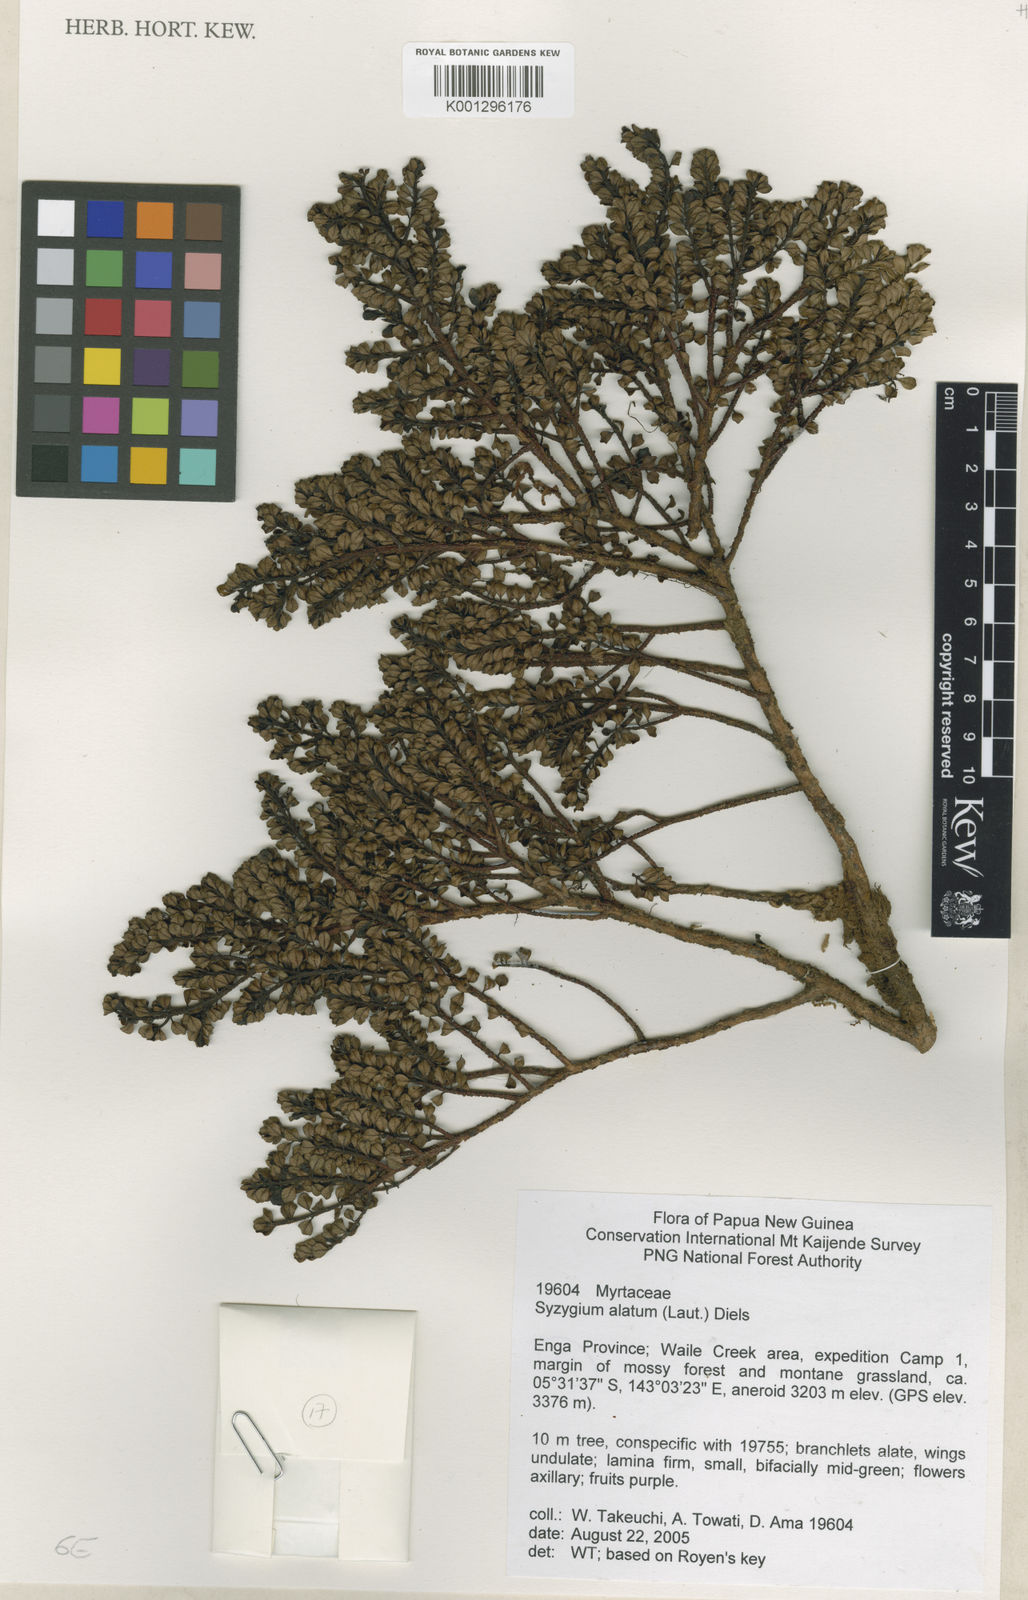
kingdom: Plantae
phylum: Tracheophyta
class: Magnoliopsida
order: Myrtales
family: Myrtaceae
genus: Syzygium
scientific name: Syzygium alatum
